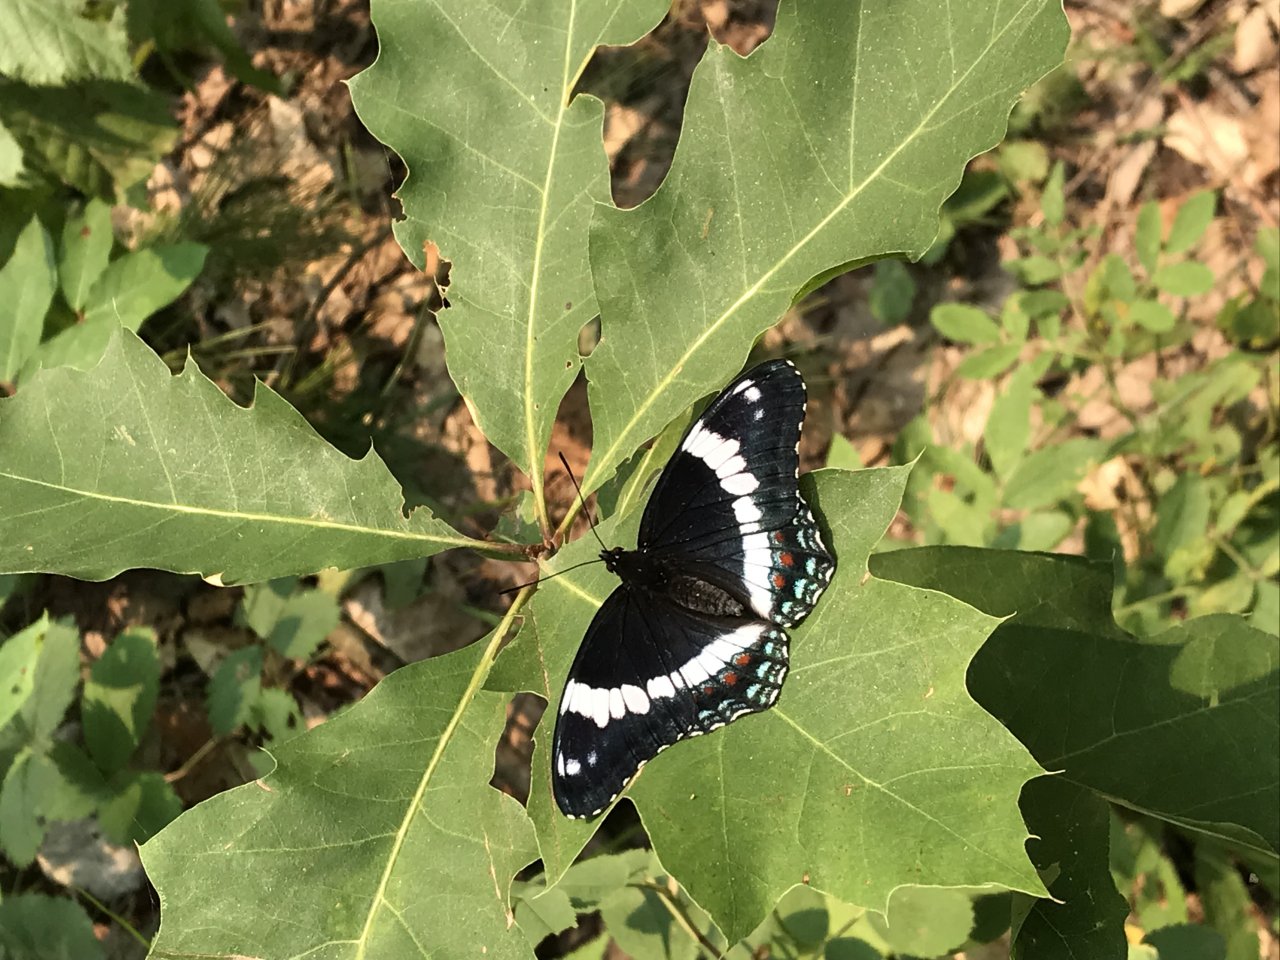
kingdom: Animalia
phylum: Arthropoda
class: Insecta
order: Lepidoptera
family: Nymphalidae
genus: Limenitis
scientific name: Limenitis arthemis
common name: Red-spotted Admiral
